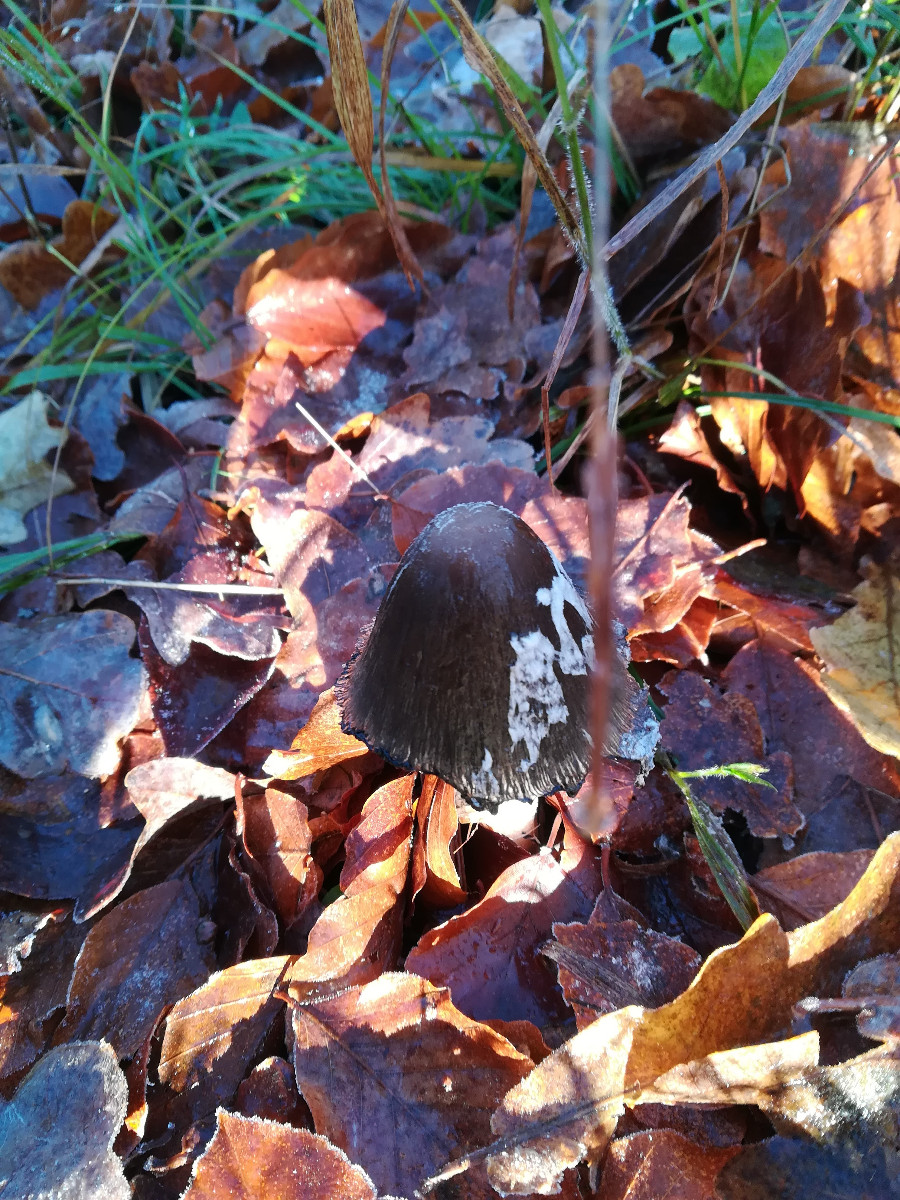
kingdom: Fungi
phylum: Basidiomycota
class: Agaricomycetes
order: Agaricales
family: Psathyrellaceae
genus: Coprinopsis
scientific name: Coprinopsis picacea
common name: skade-blækhat
